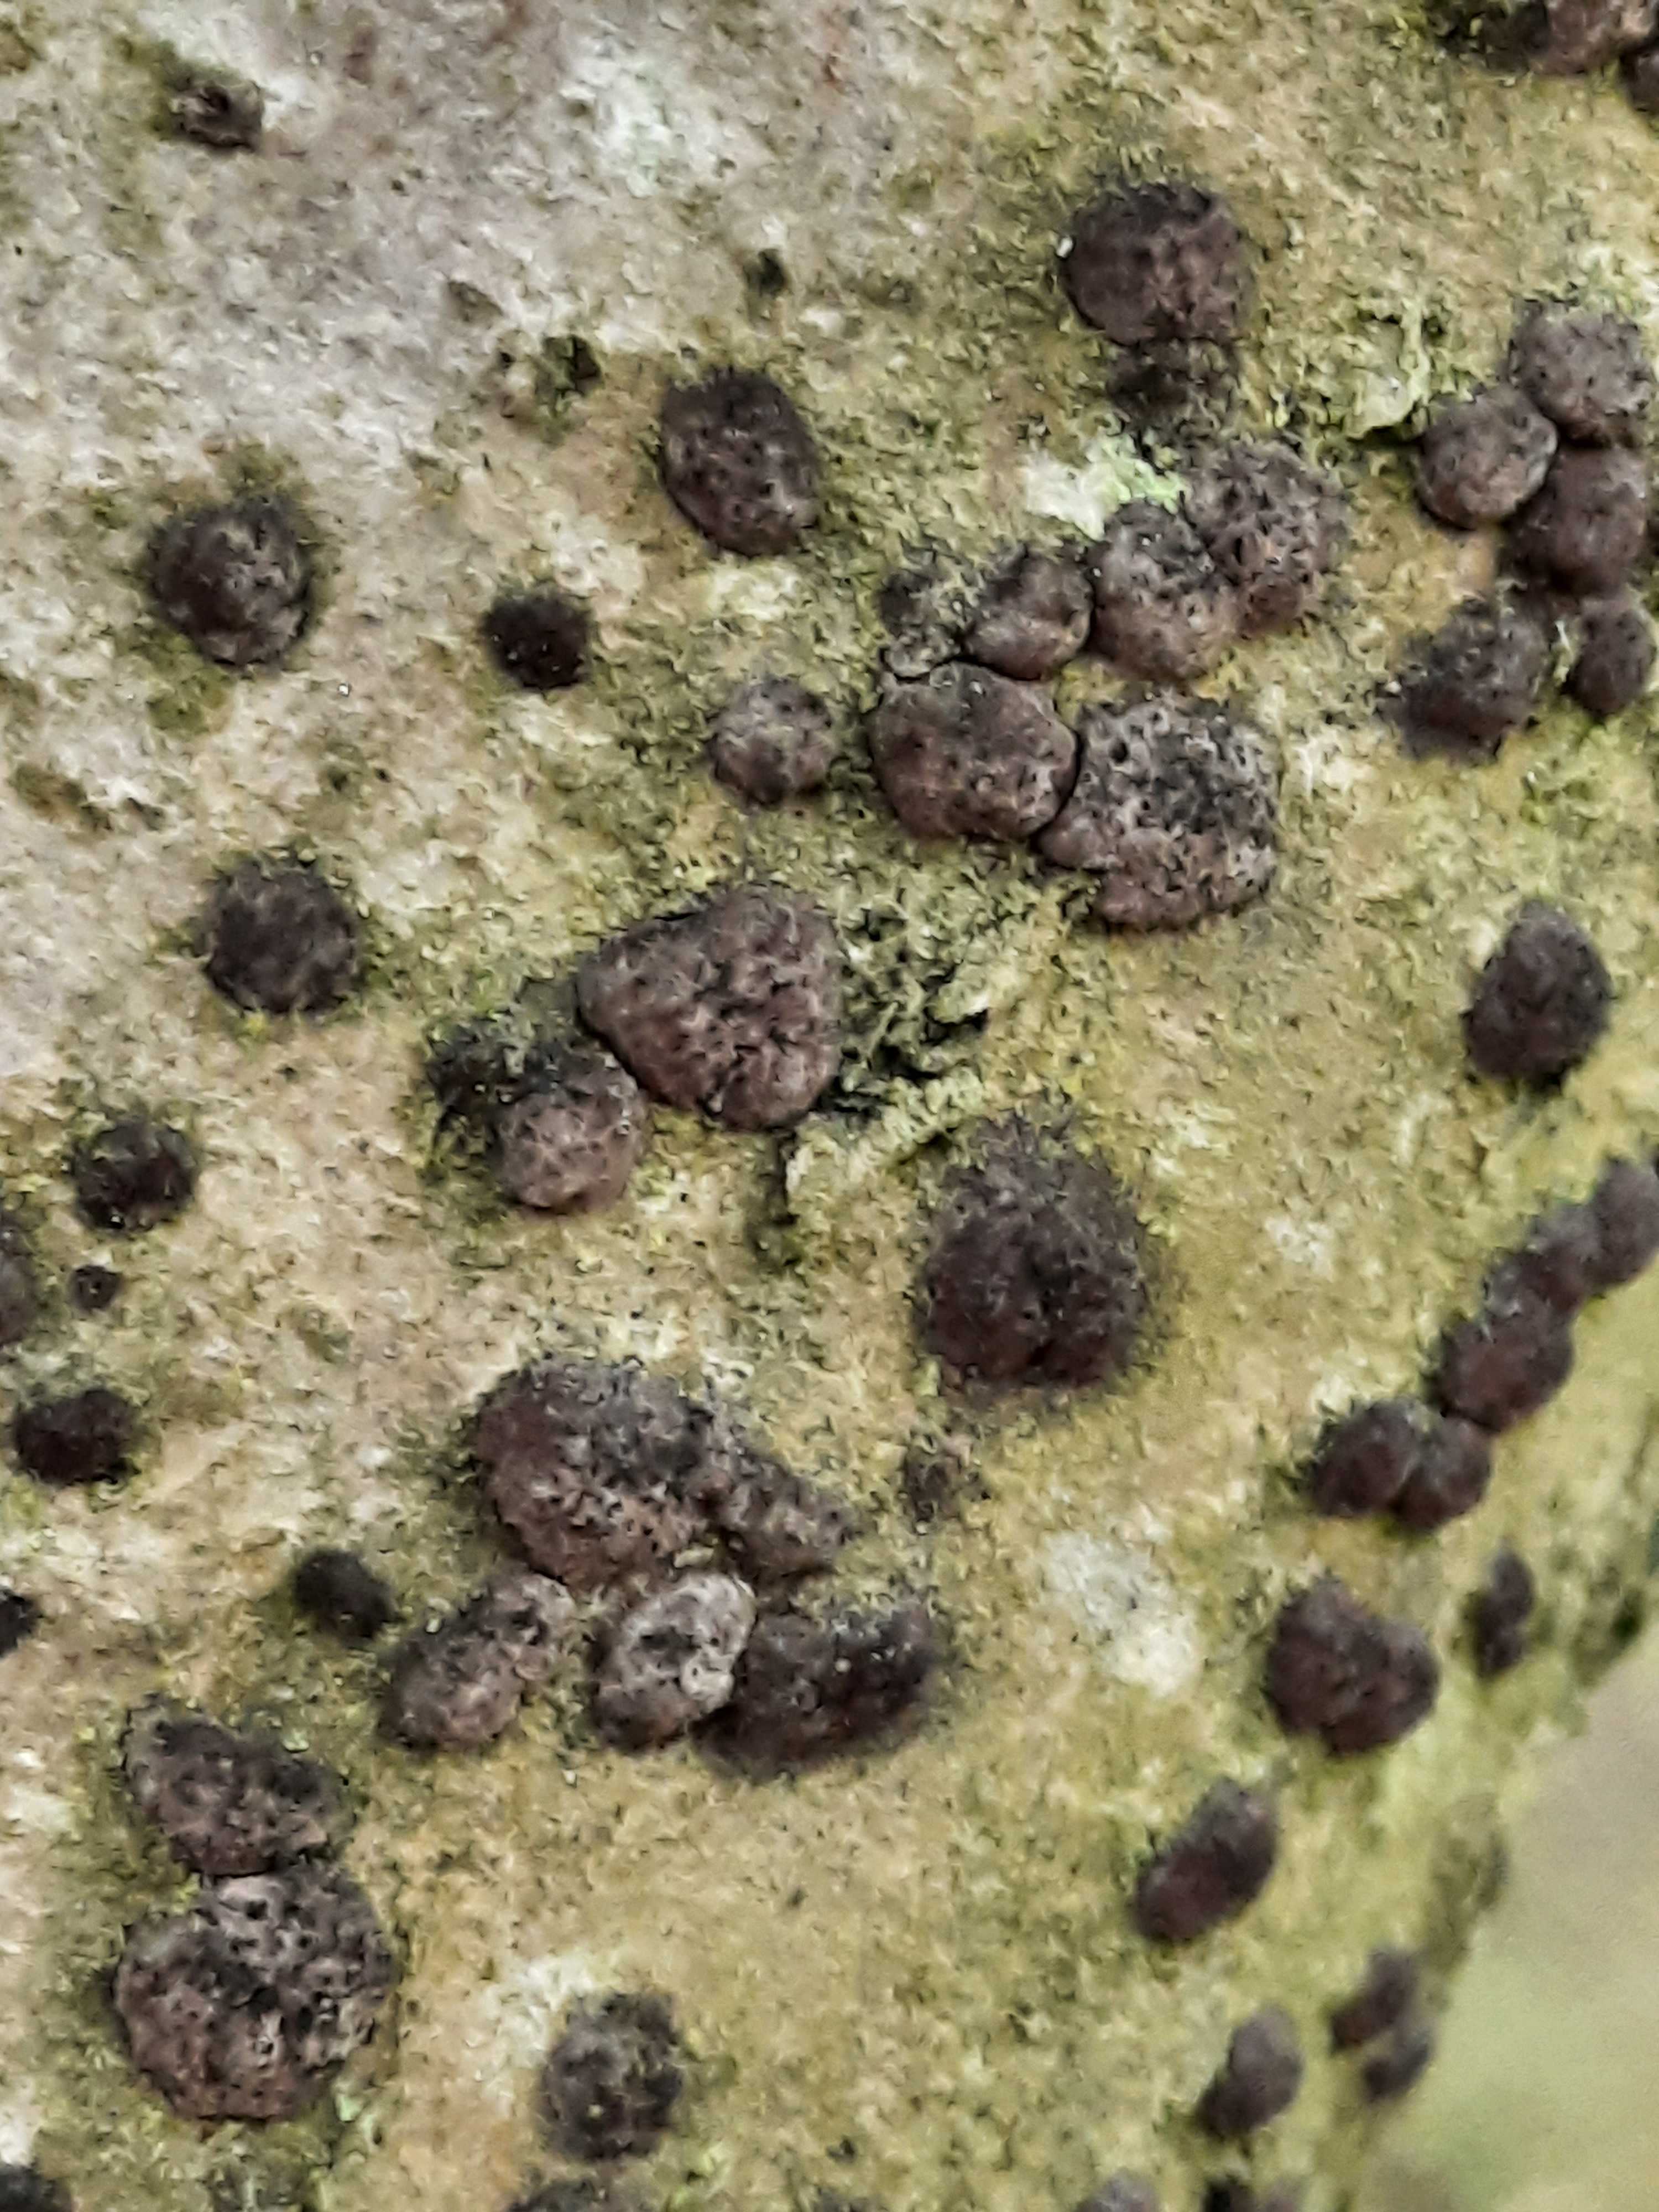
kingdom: Fungi
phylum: Ascomycota
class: Sordariomycetes
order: Xylariales
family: Hypoxylaceae
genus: Hypoxylon
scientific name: Hypoxylon fuscum
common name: kegleformet kulbær
